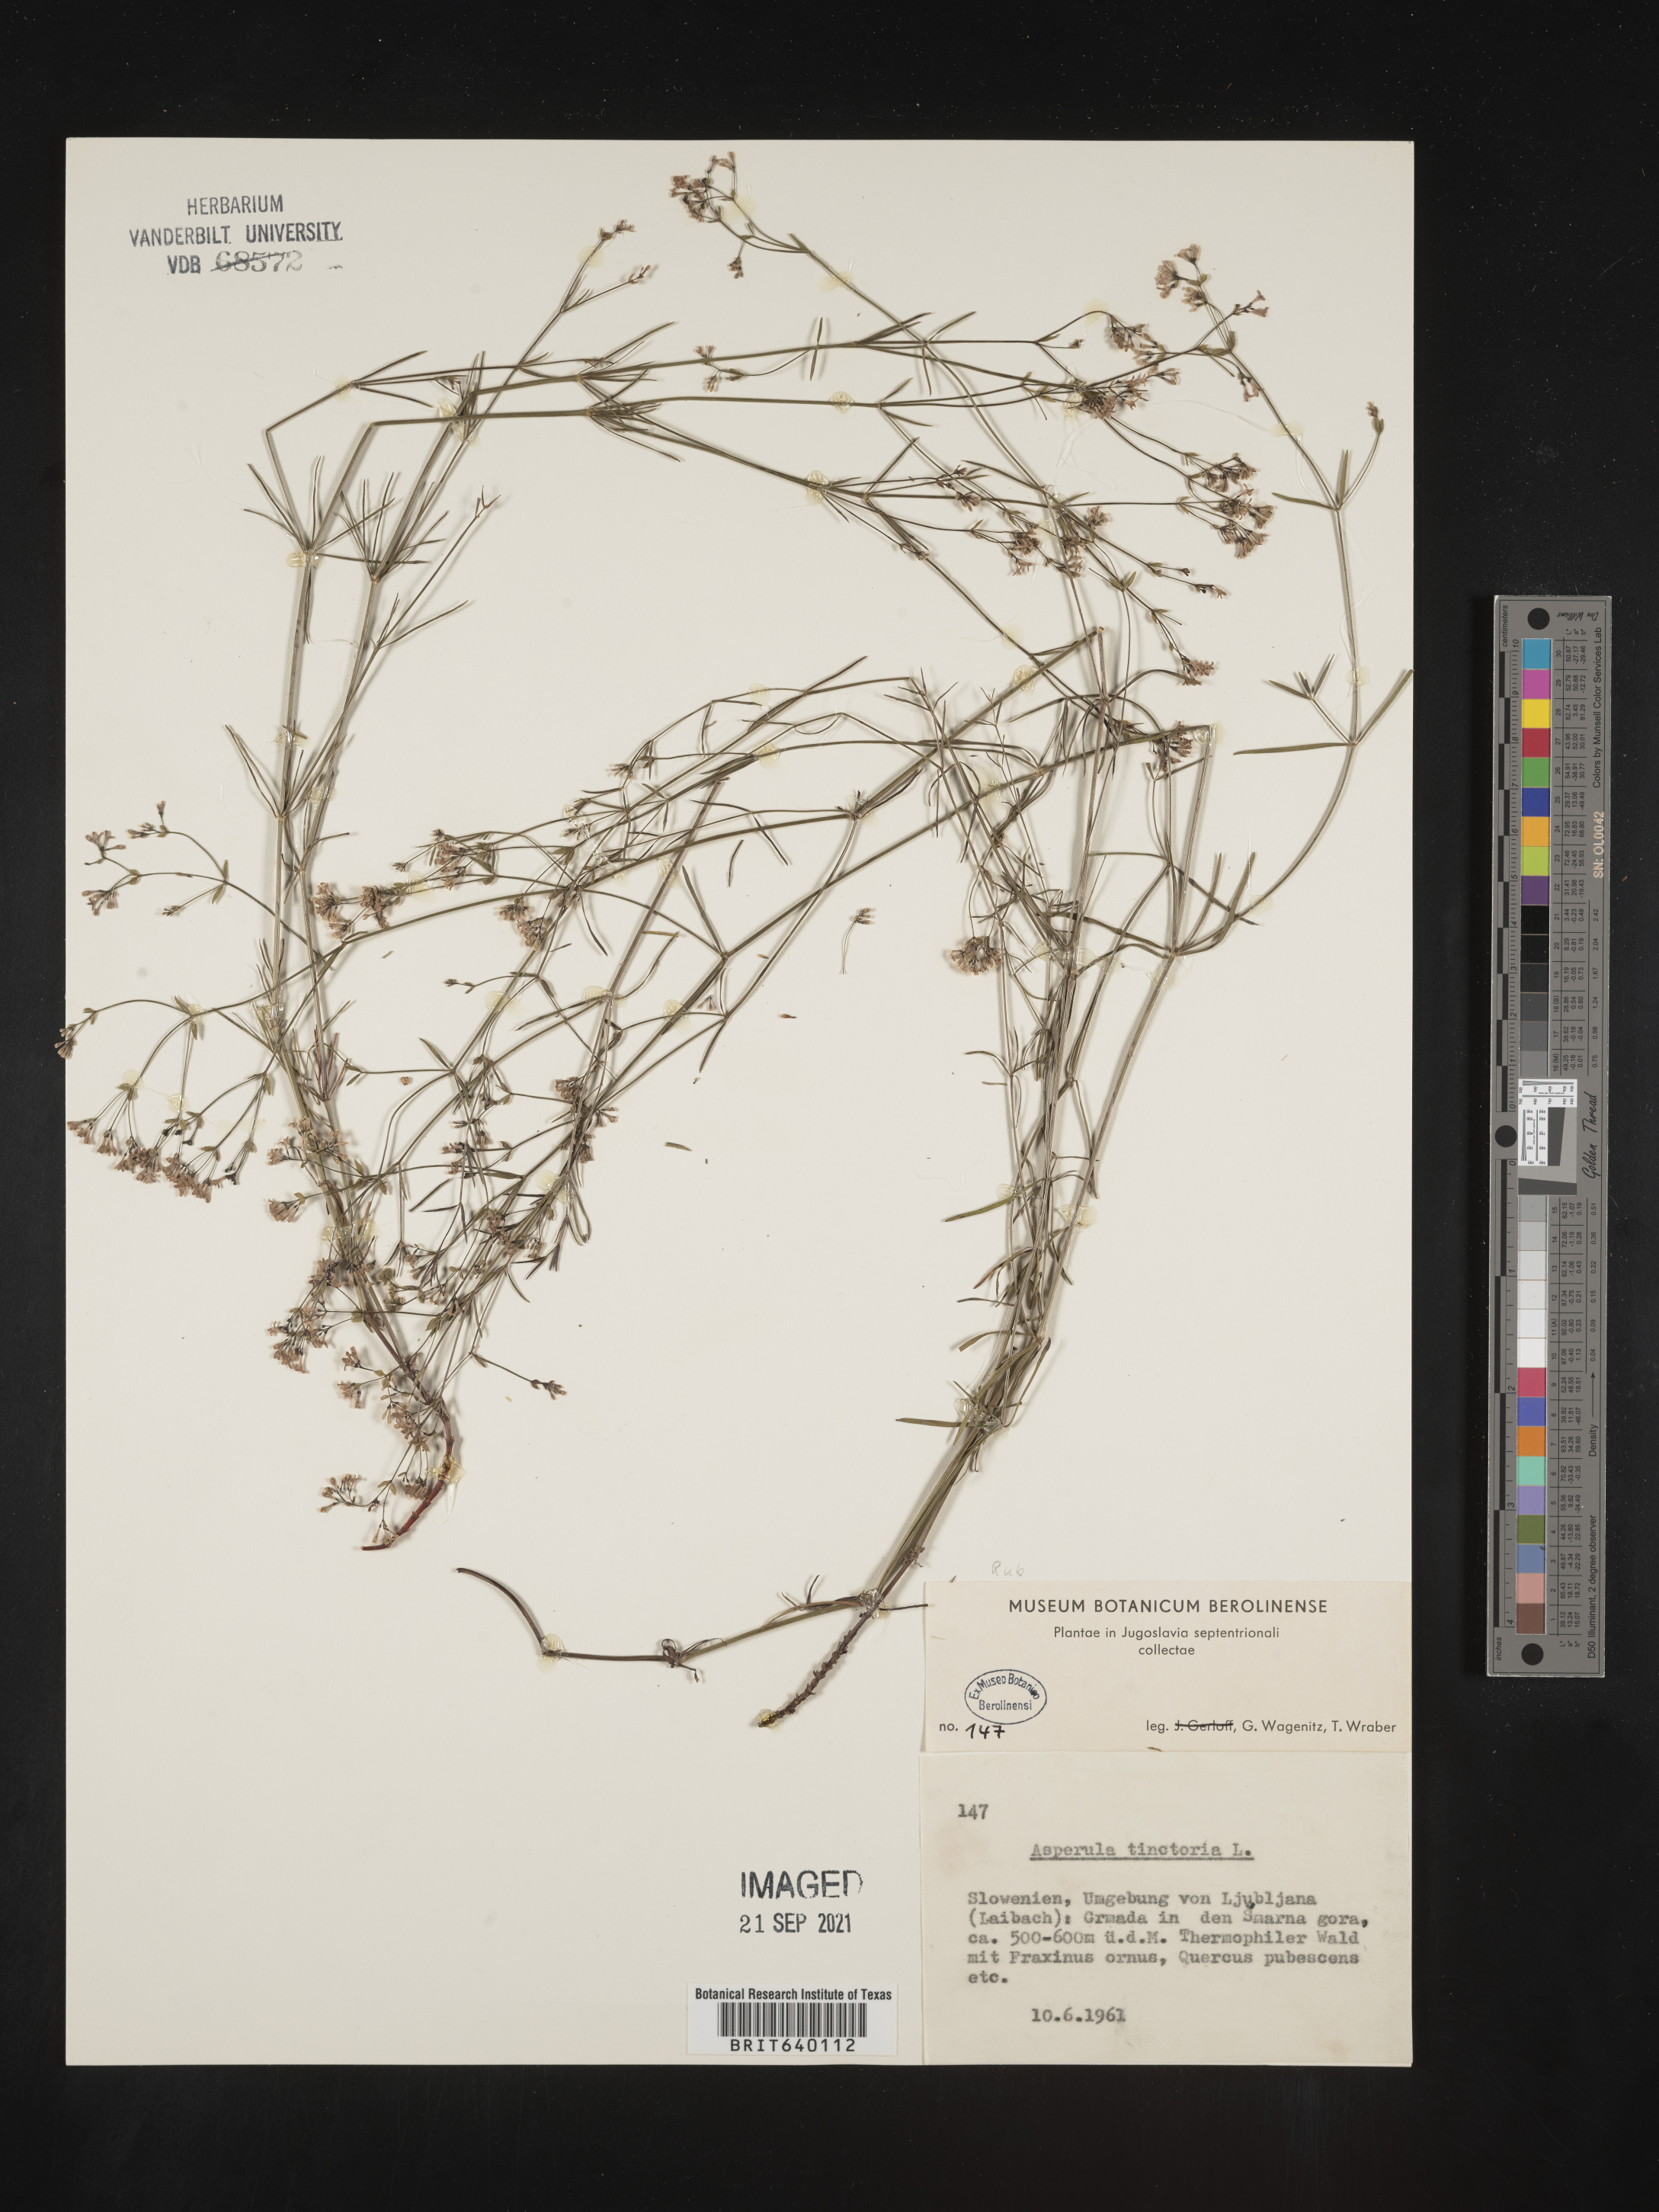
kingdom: Plantae
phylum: Tracheophyta
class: Magnoliopsida
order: Gentianales
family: Rubiaceae
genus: Asperula
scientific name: Asperula
